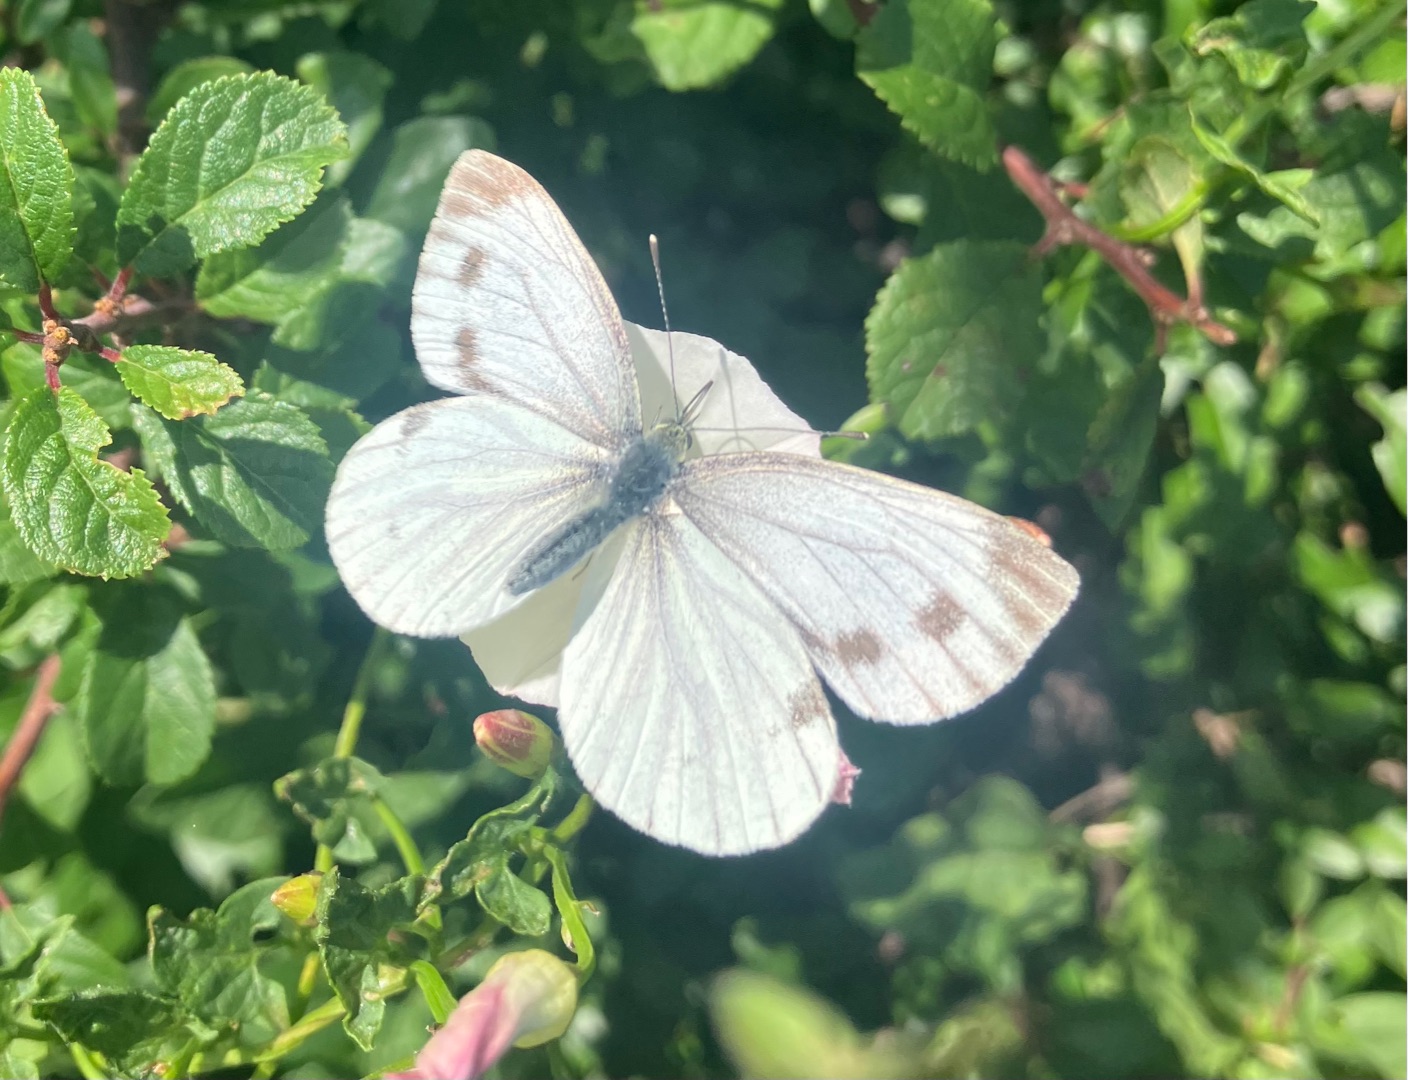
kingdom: Animalia
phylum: Arthropoda
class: Insecta
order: Lepidoptera
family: Pieridae
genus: Pieris
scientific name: Pieris napi
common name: Grønåret kålsommerfugl
